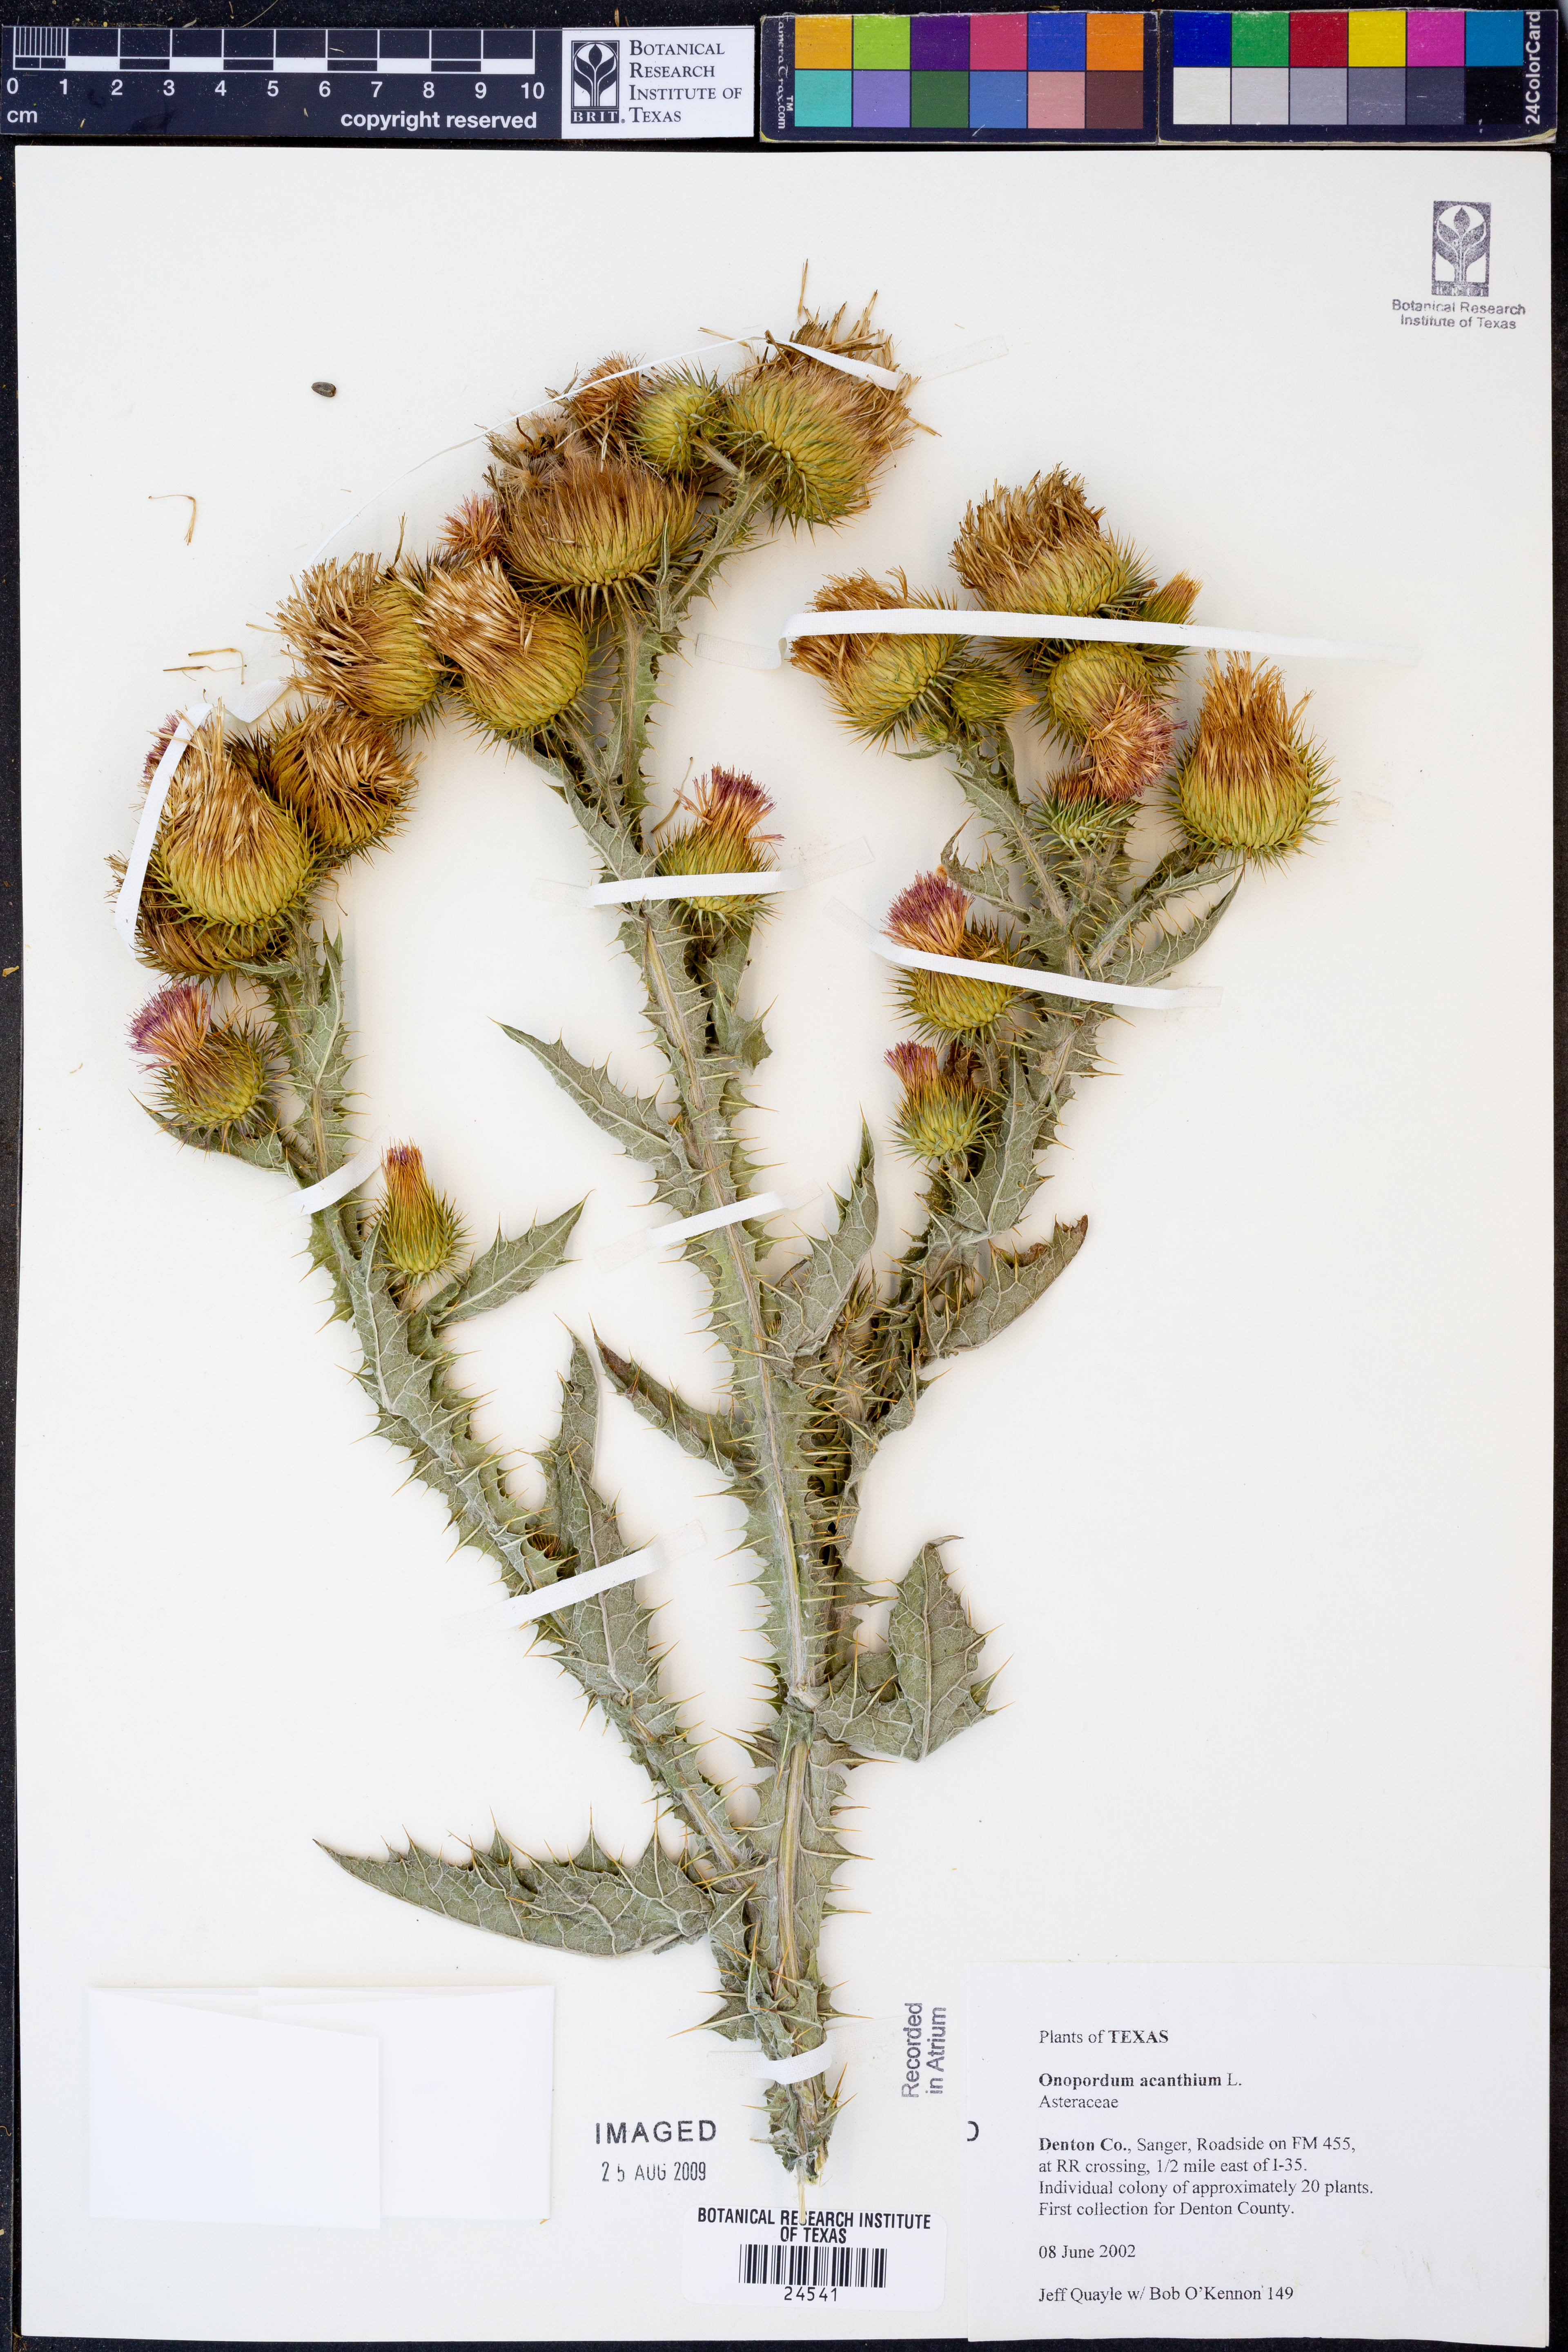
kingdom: Plantae
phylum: Tracheophyta
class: Magnoliopsida
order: Asterales
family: Asteraceae
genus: Onopordum
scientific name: Onopordum acanthium
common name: Scotch thistle
